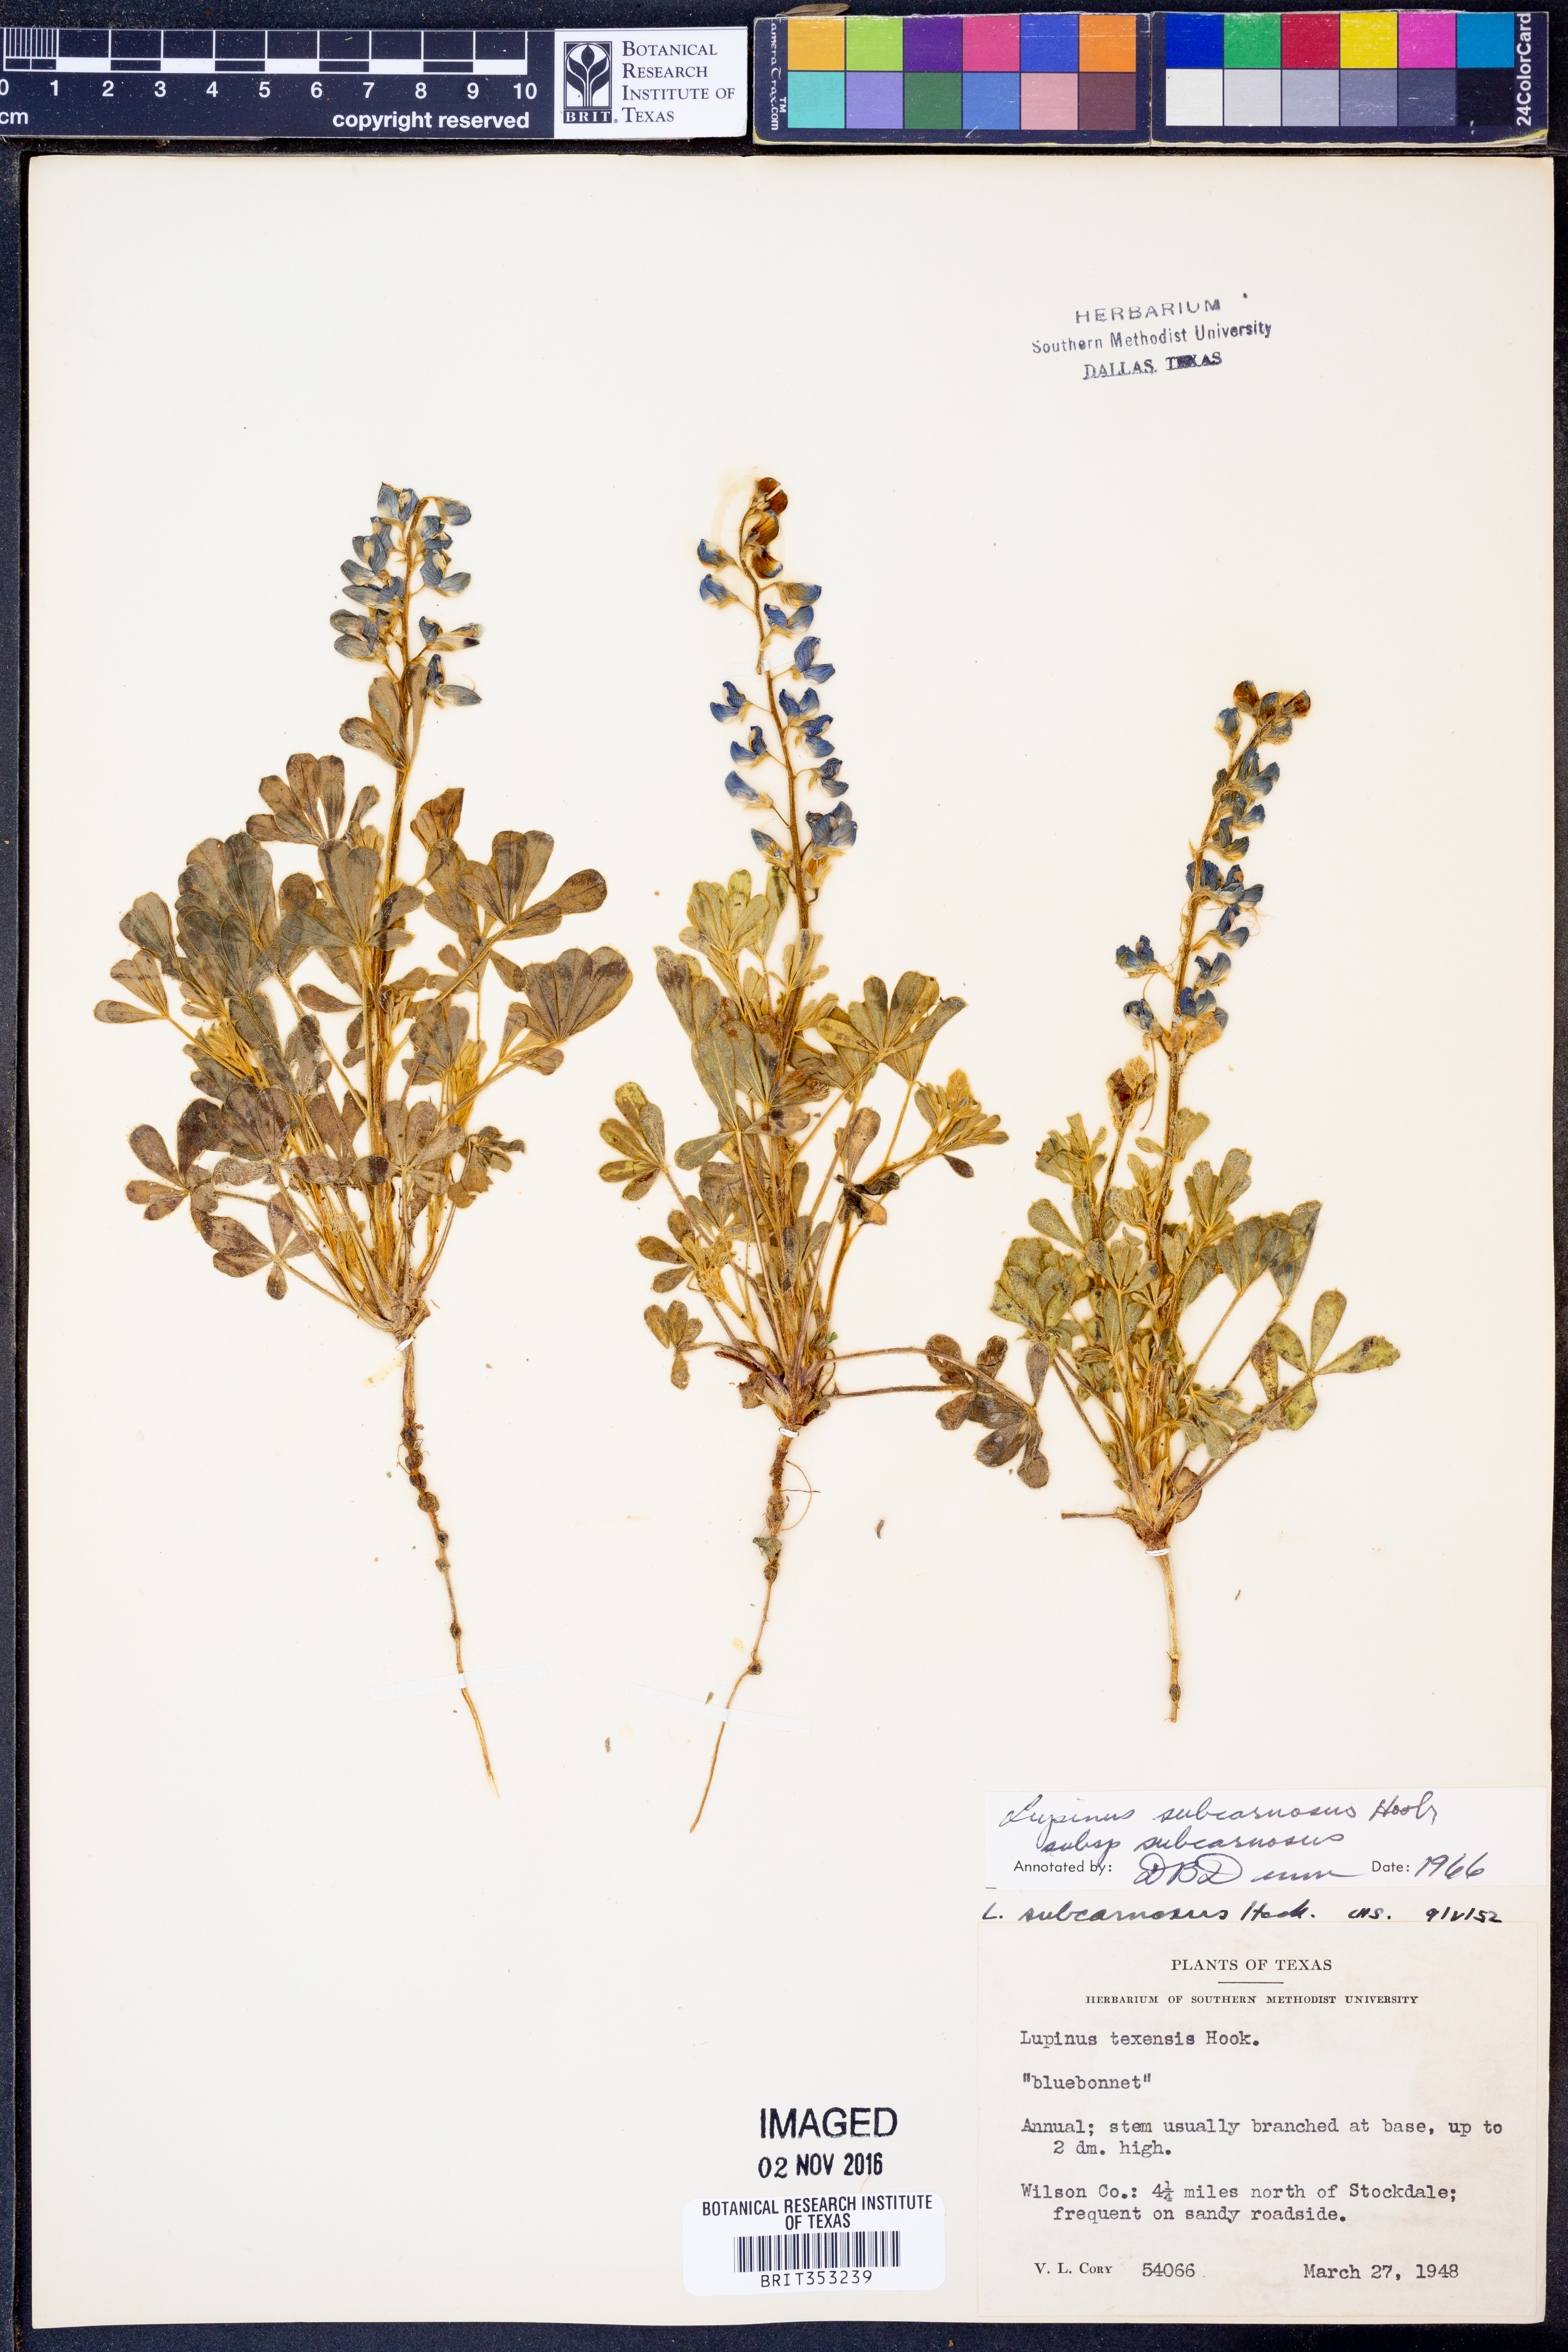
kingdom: Plantae
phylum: Tracheophyta
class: Magnoliopsida
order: Fabales
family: Fabaceae
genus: Lupinus
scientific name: Lupinus subcarnosus
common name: Texas bluebonnet
